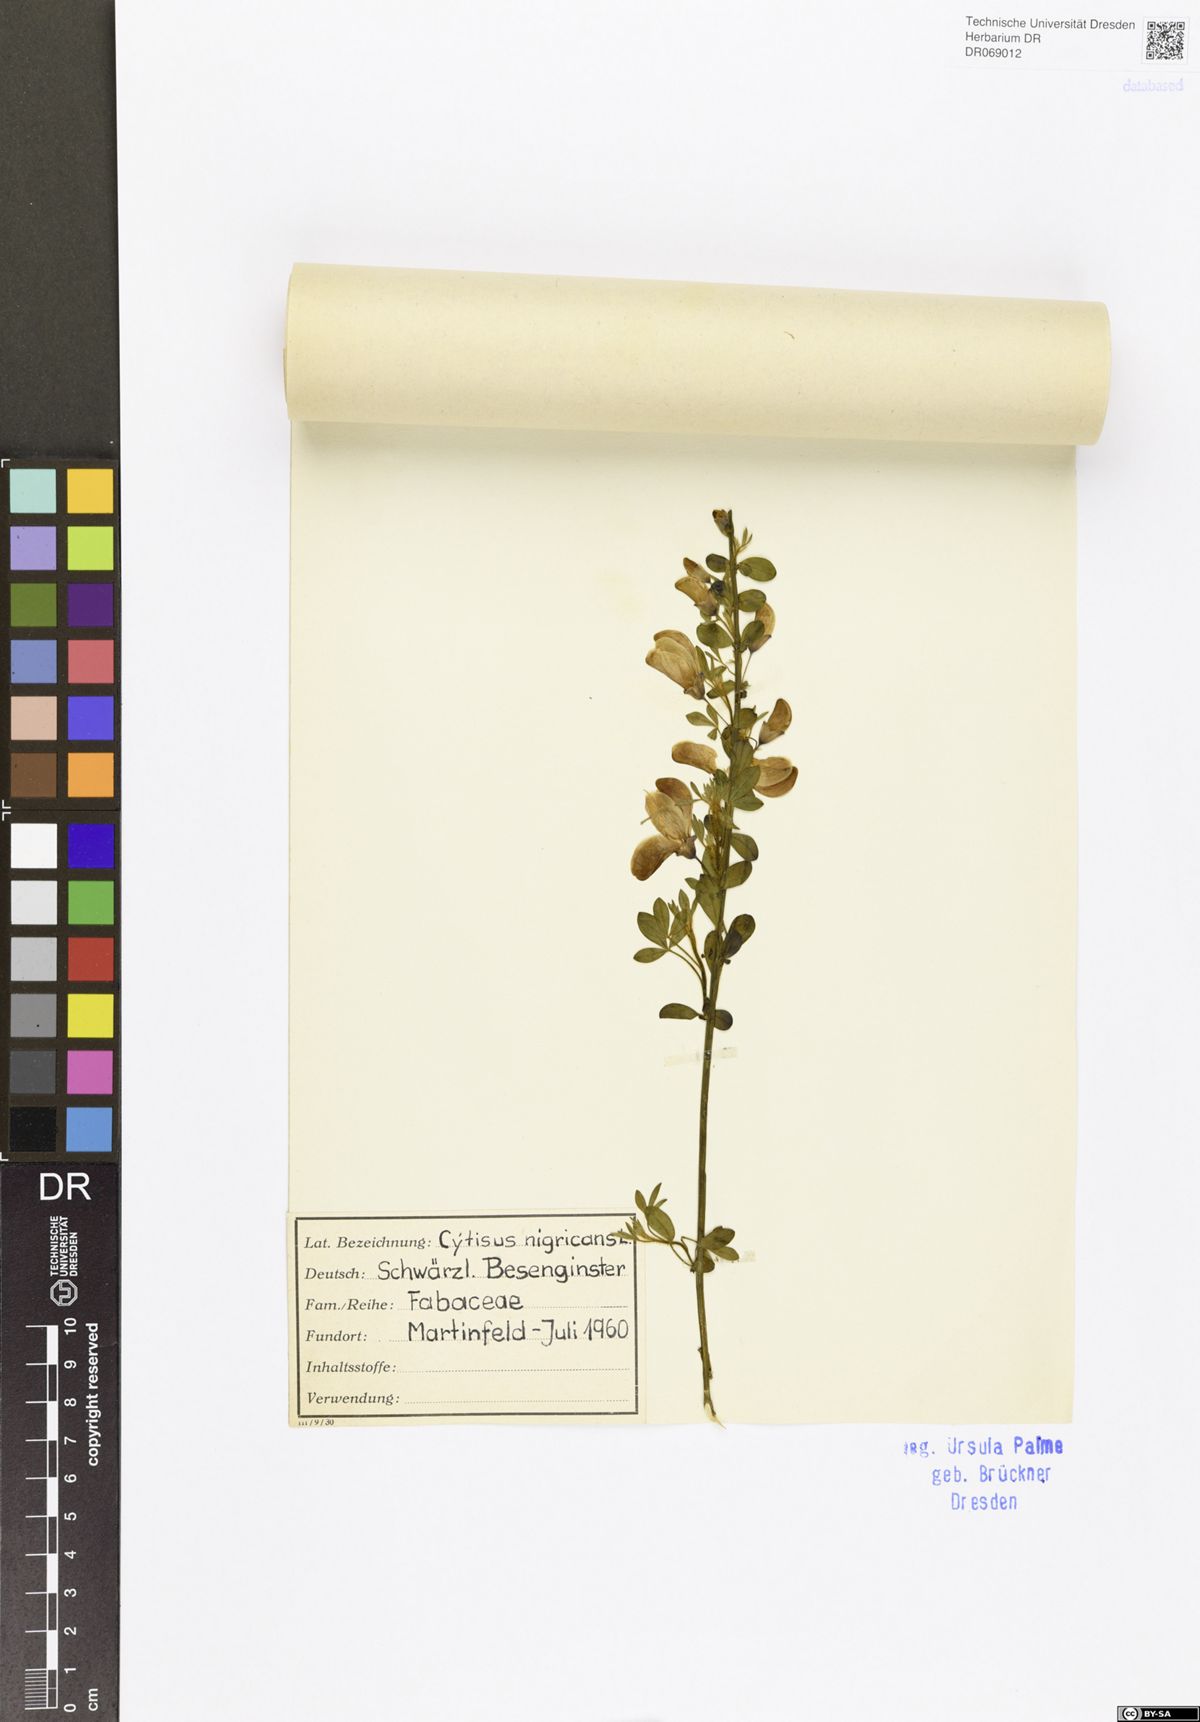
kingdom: Plantae
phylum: Tracheophyta
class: Magnoliopsida
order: Fabales
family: Fabaceae
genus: Cytisus
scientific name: Cytisus nigricans
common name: Black broom
